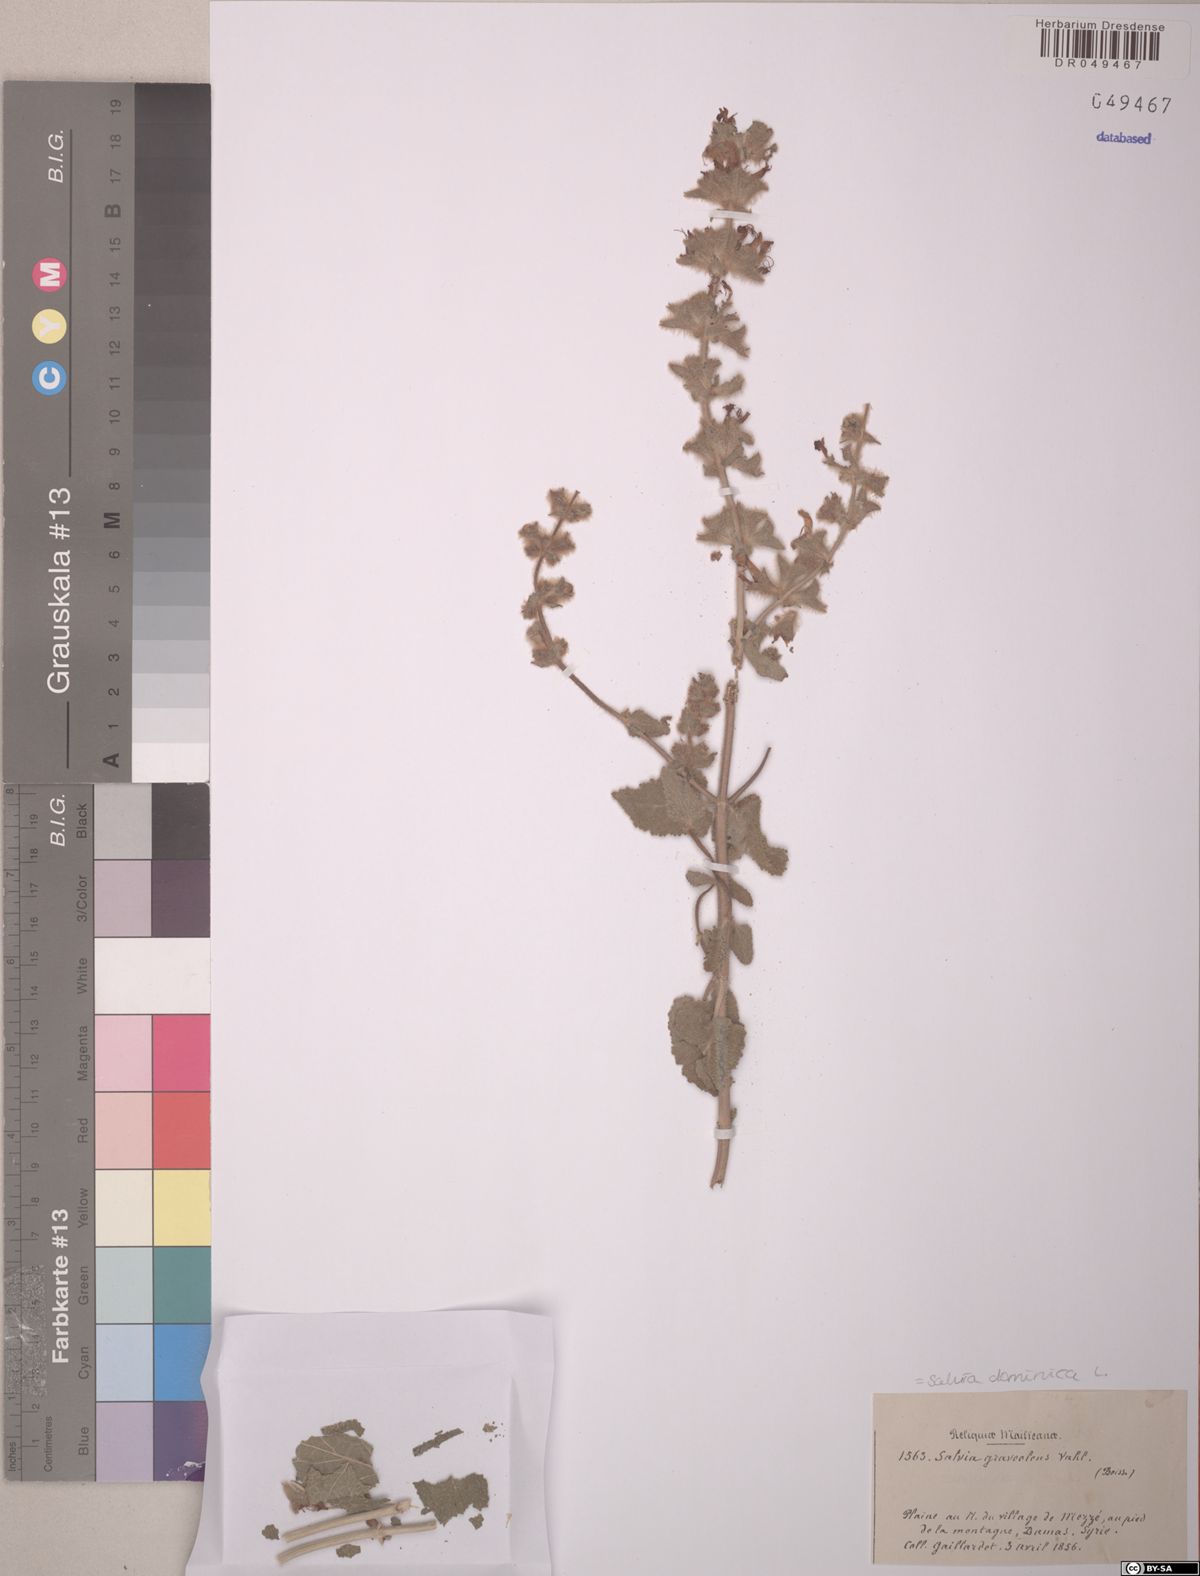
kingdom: Plantae
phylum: Tracheophyta
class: Magnoliopsida
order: Lamiales
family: Lamiaceae
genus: Salvia
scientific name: Salvia dominica
